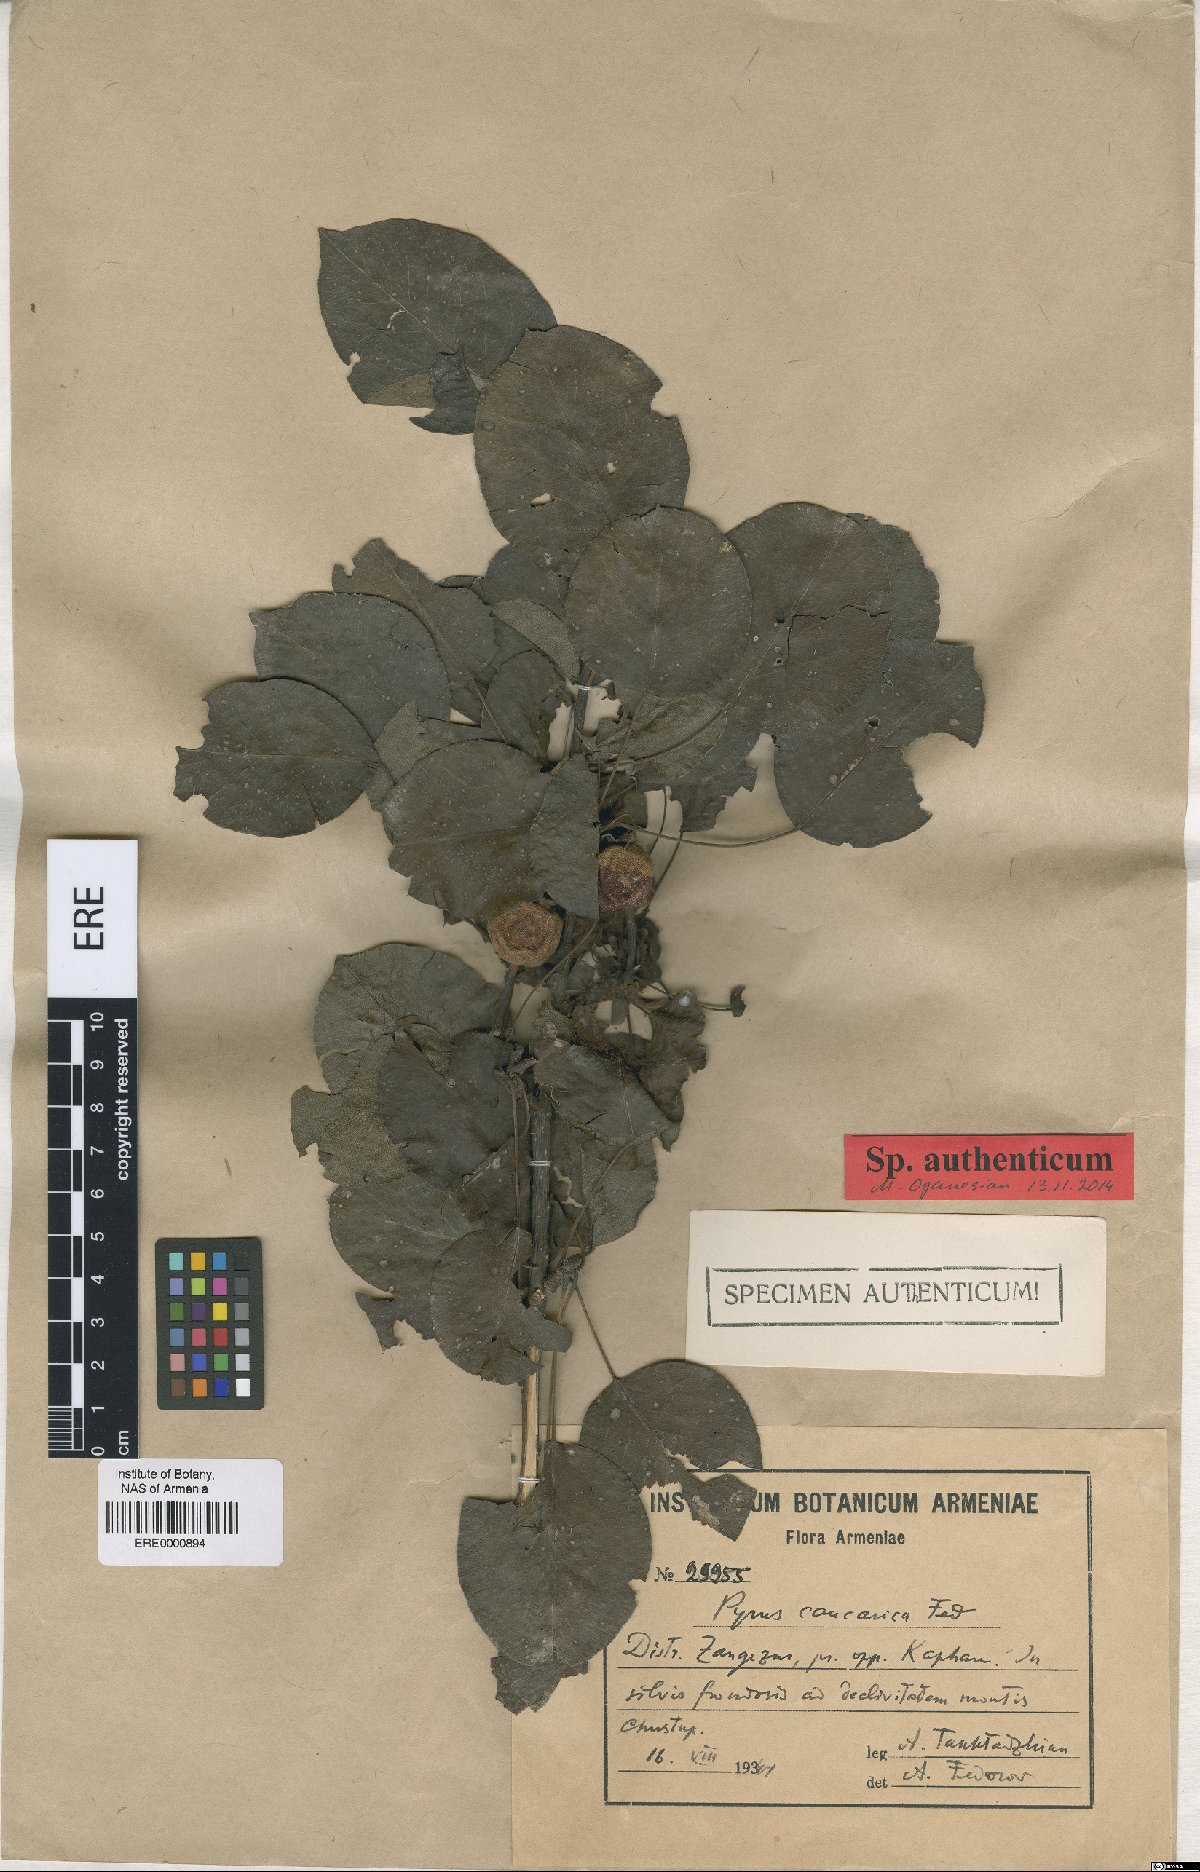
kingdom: Plantae
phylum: Tracheophyta
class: Magnoliopsida
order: Rosales
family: Rosaceae
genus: Pyrus
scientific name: Pyrus communis
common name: Pear
